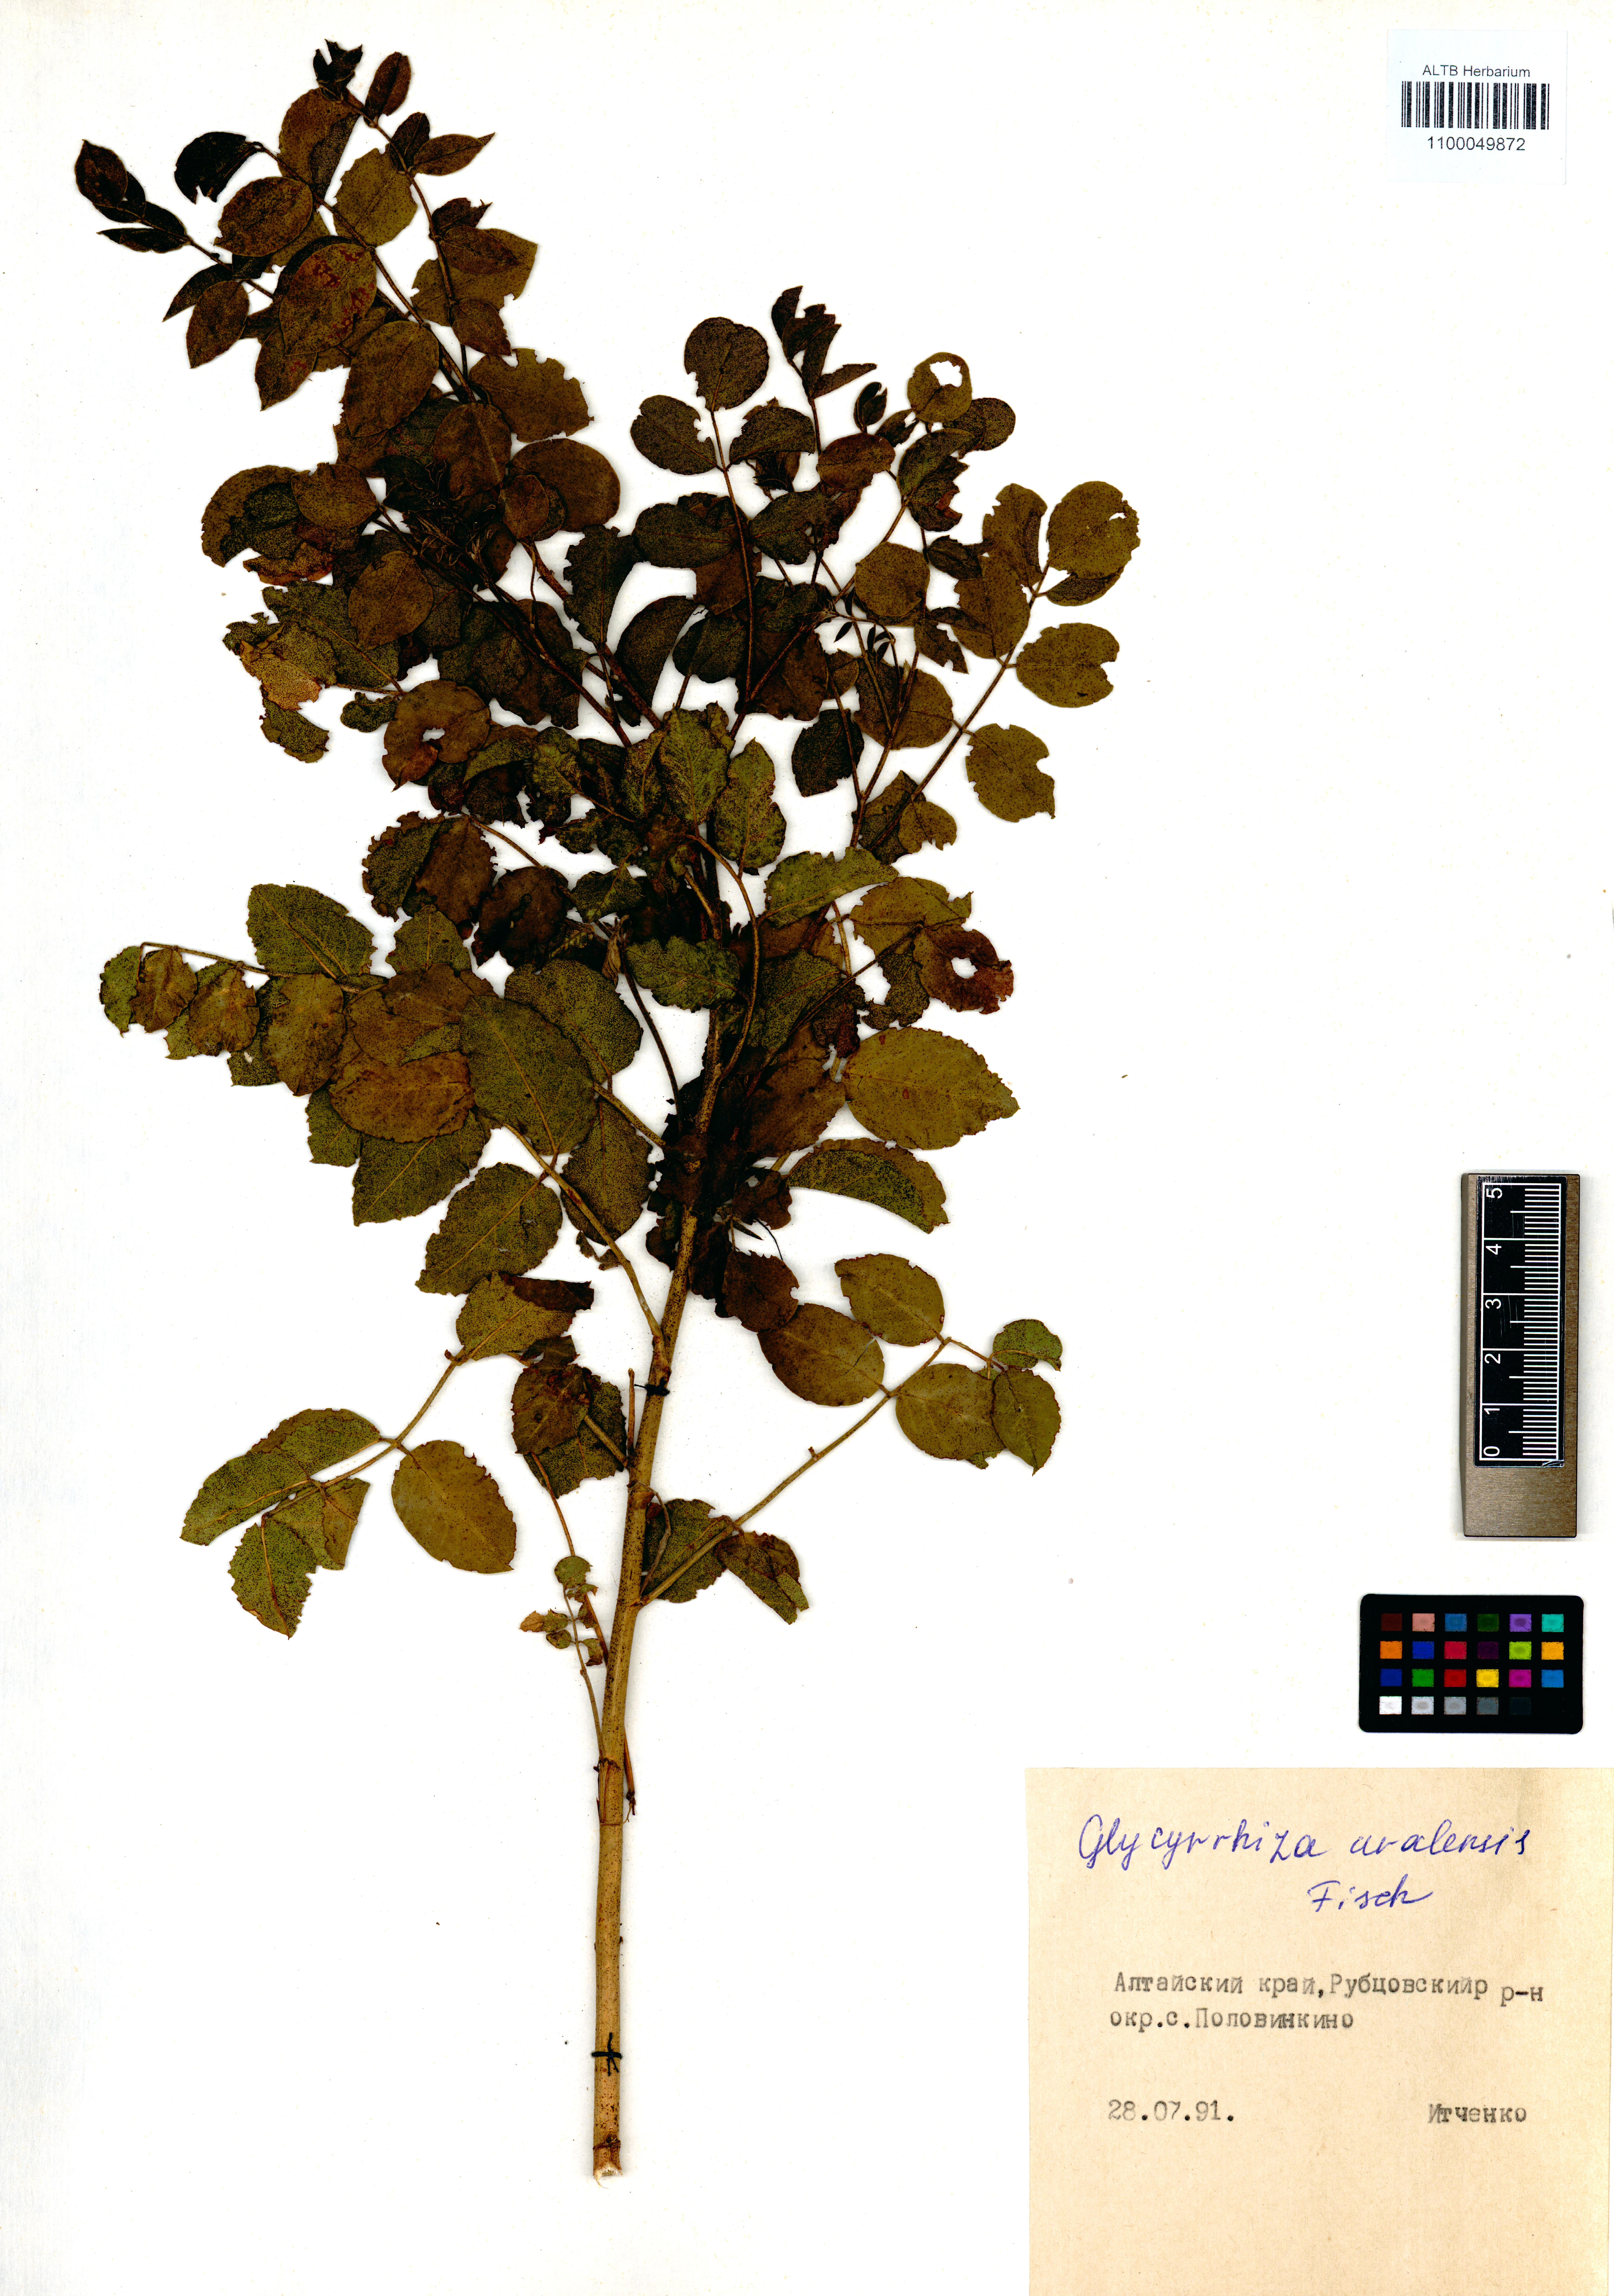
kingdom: Plantae
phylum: Tracheophyta
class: Magnoliopsida
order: Fabales
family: Fabaceae
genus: Glycyrrhiza
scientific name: Glycyrrhiza uralensis
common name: Chinese licorice
